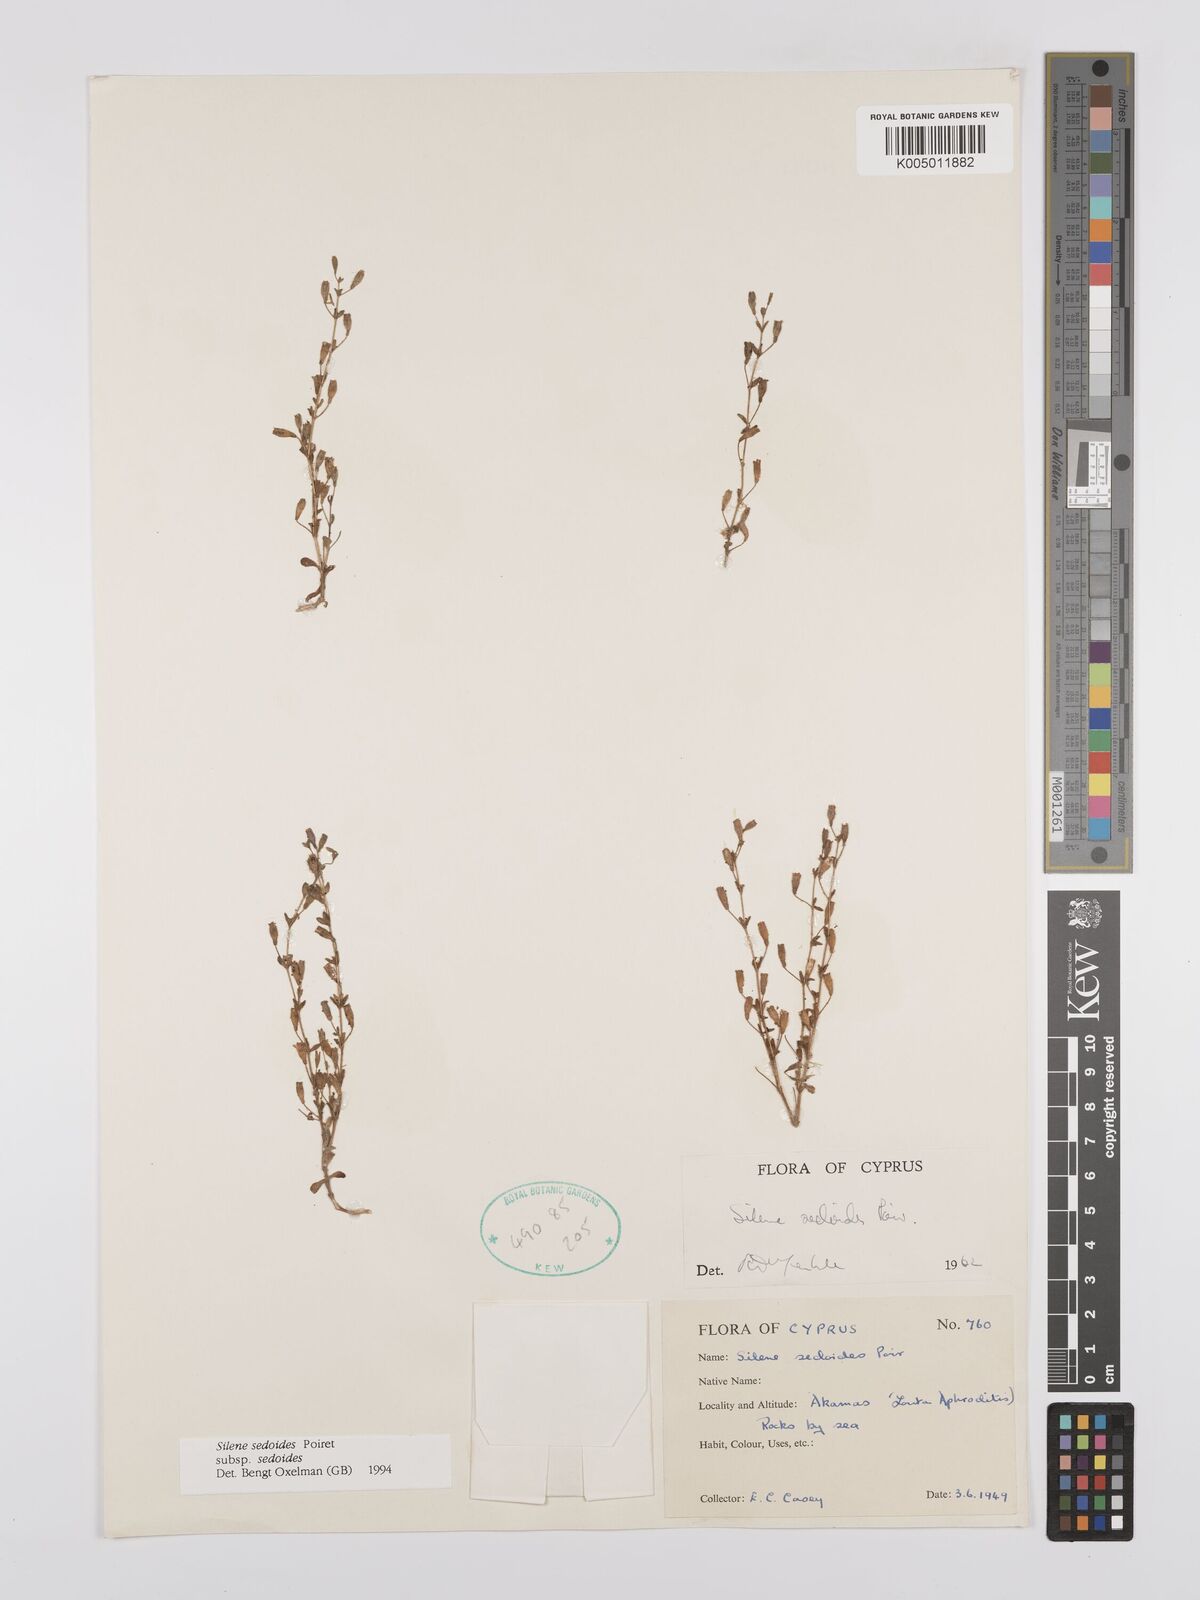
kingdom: Plantae
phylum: Tracheophyta
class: Magnoliopsida
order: Caryophyllales
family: Caryophyllaceae
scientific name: Caryophyllaceae
